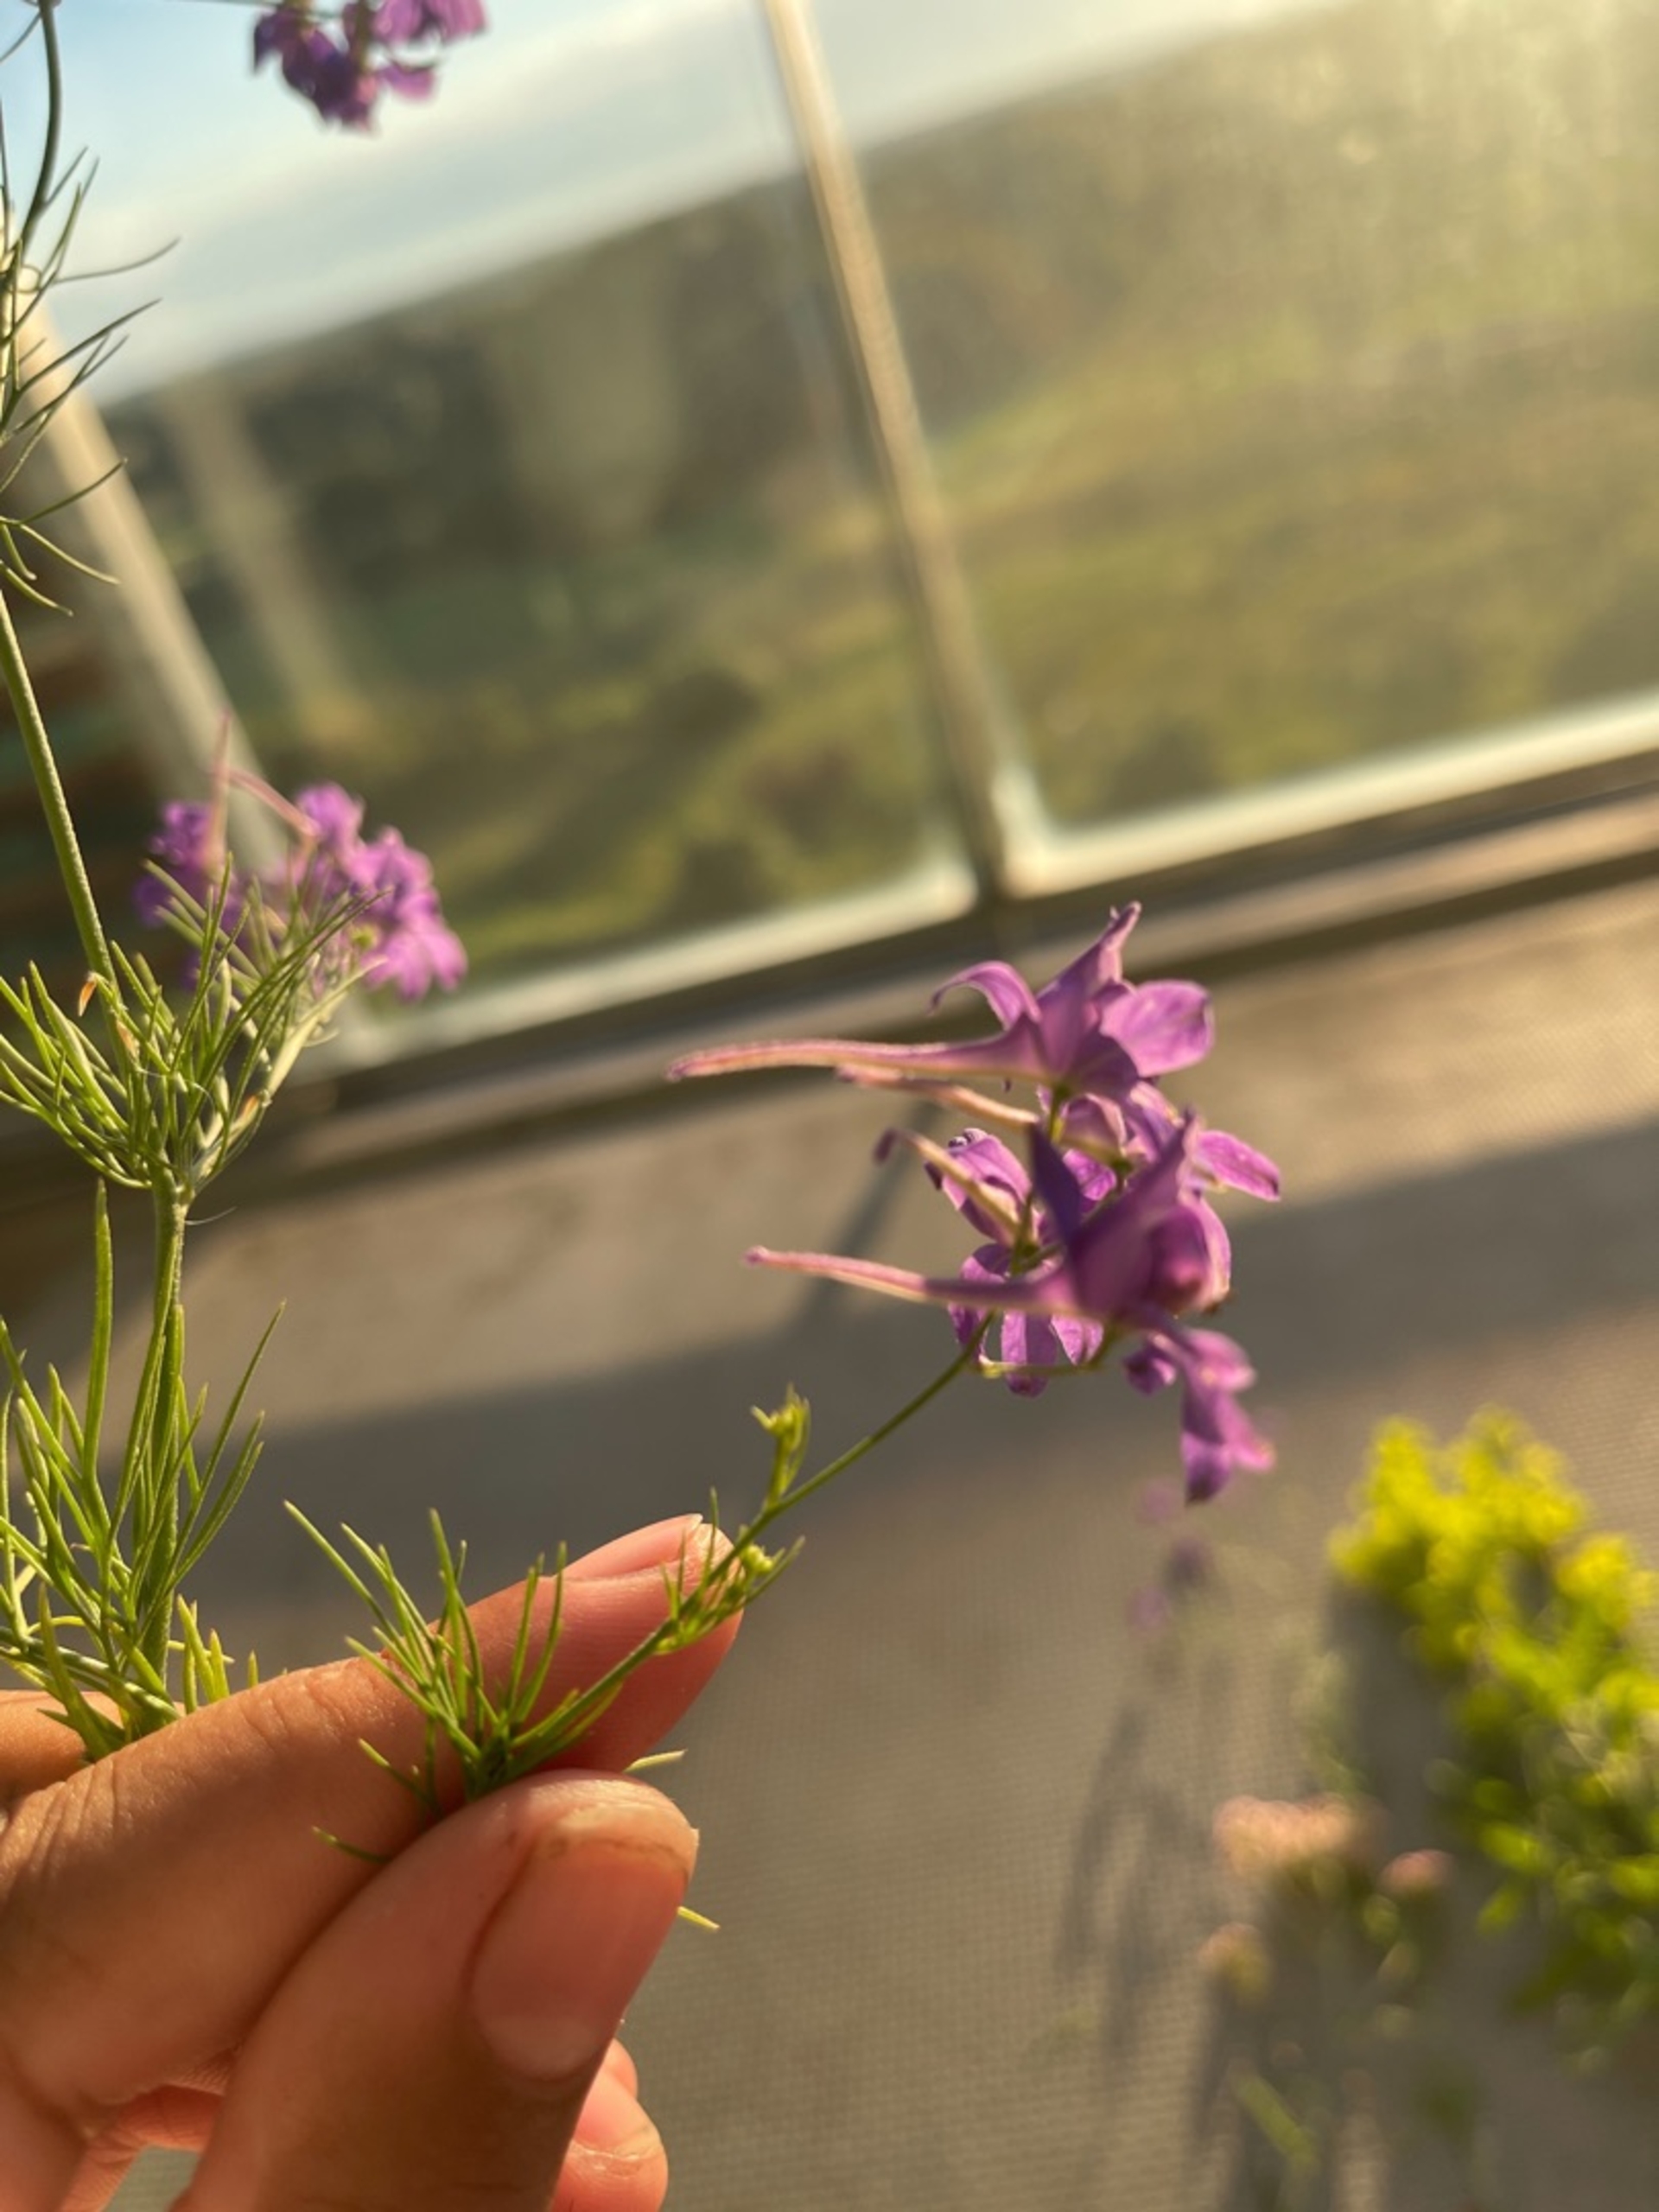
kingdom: Plantae
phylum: Tracheophyta
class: Magnoliopsida
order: Ranunculales
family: Ranunculaceae
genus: Delphinium
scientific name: Delphinium consolida
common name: Korn-ridderspore
